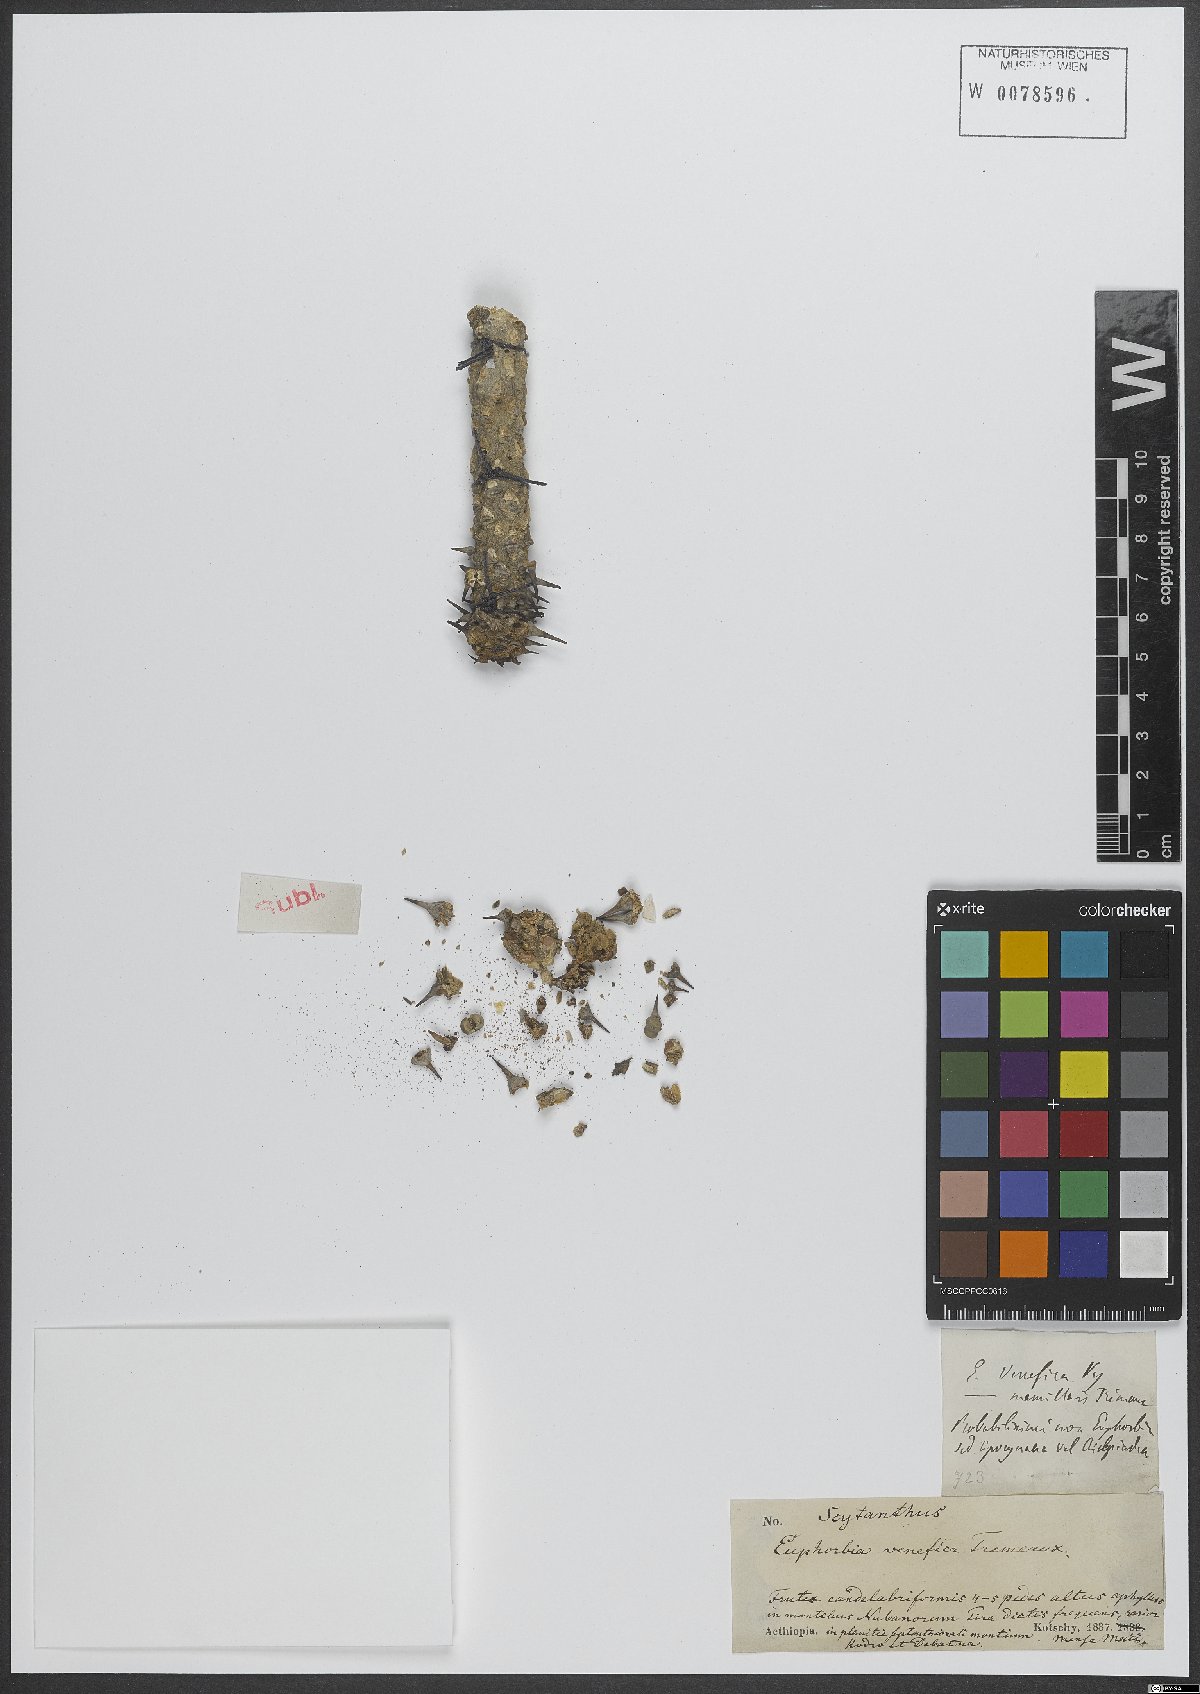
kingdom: Plantae
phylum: Tracheophyta
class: Magnoliopsida
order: Malpighiales
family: Euphorbiaceae
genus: Euphorbia
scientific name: Euphorbia
